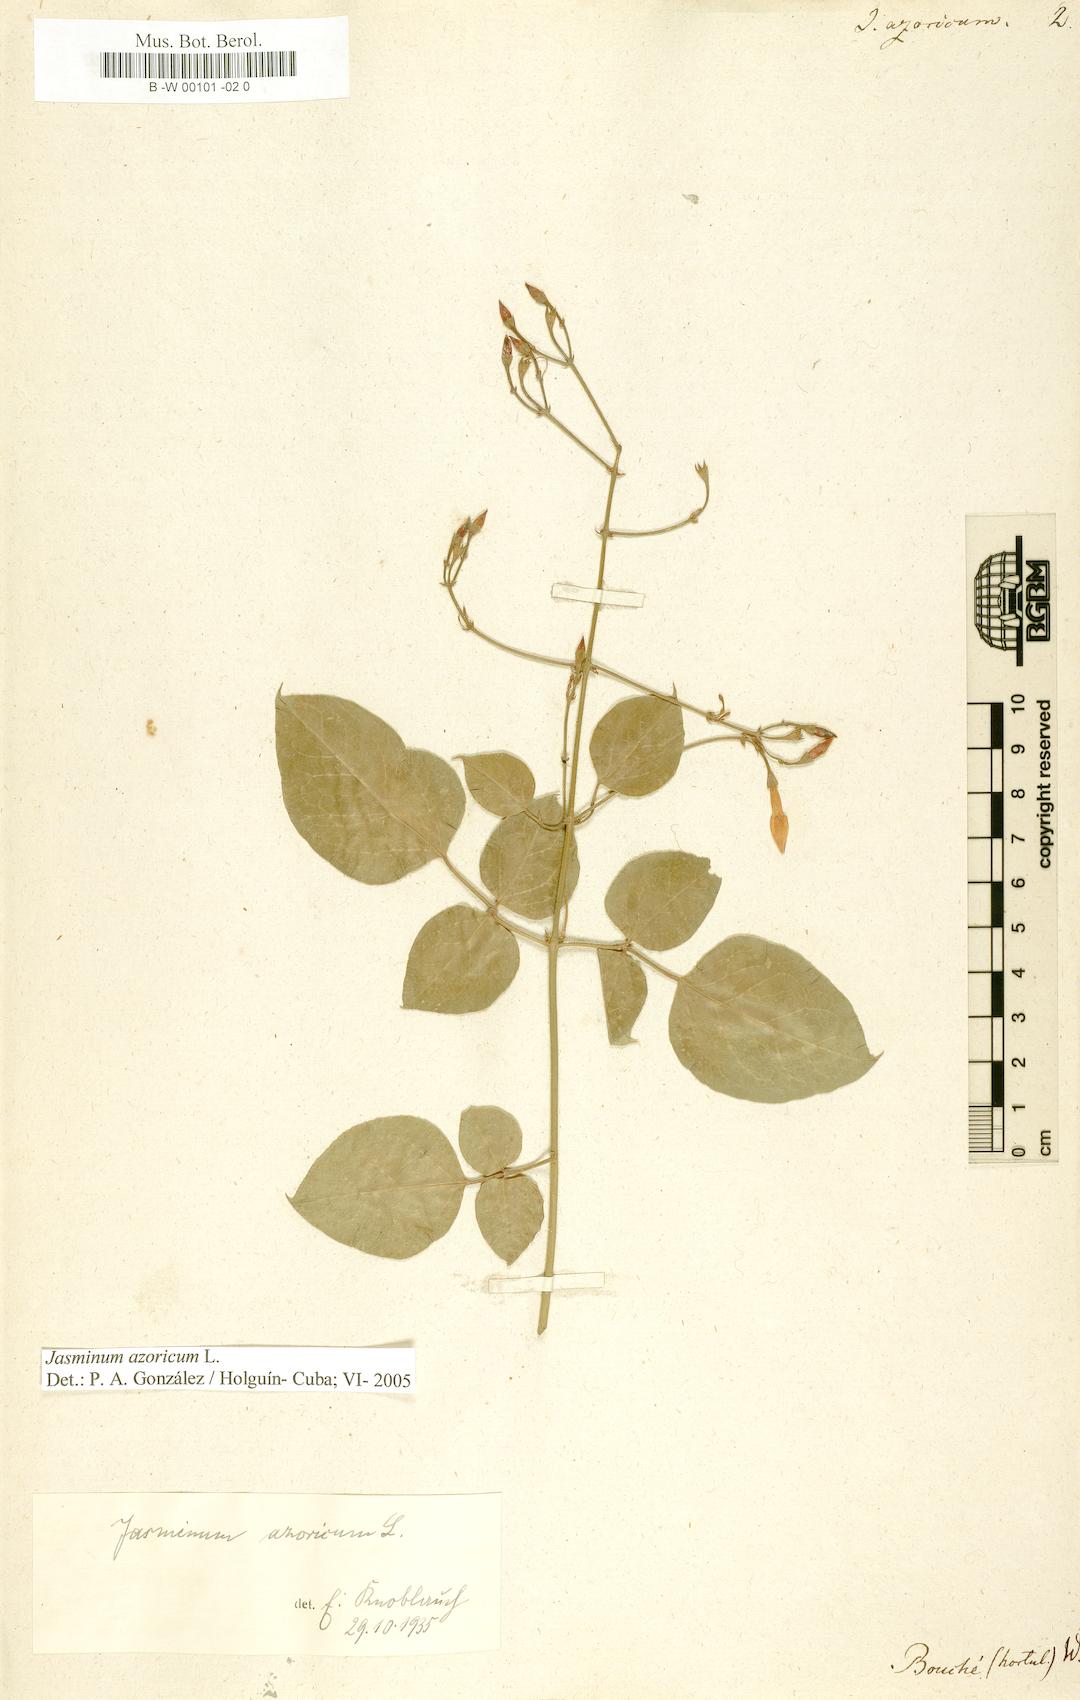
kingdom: Plantae
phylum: Tracheophyta
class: Magnoliopsida
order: Lamiales
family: Oleaceae
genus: Jasminum
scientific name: Jasminum azoricum
